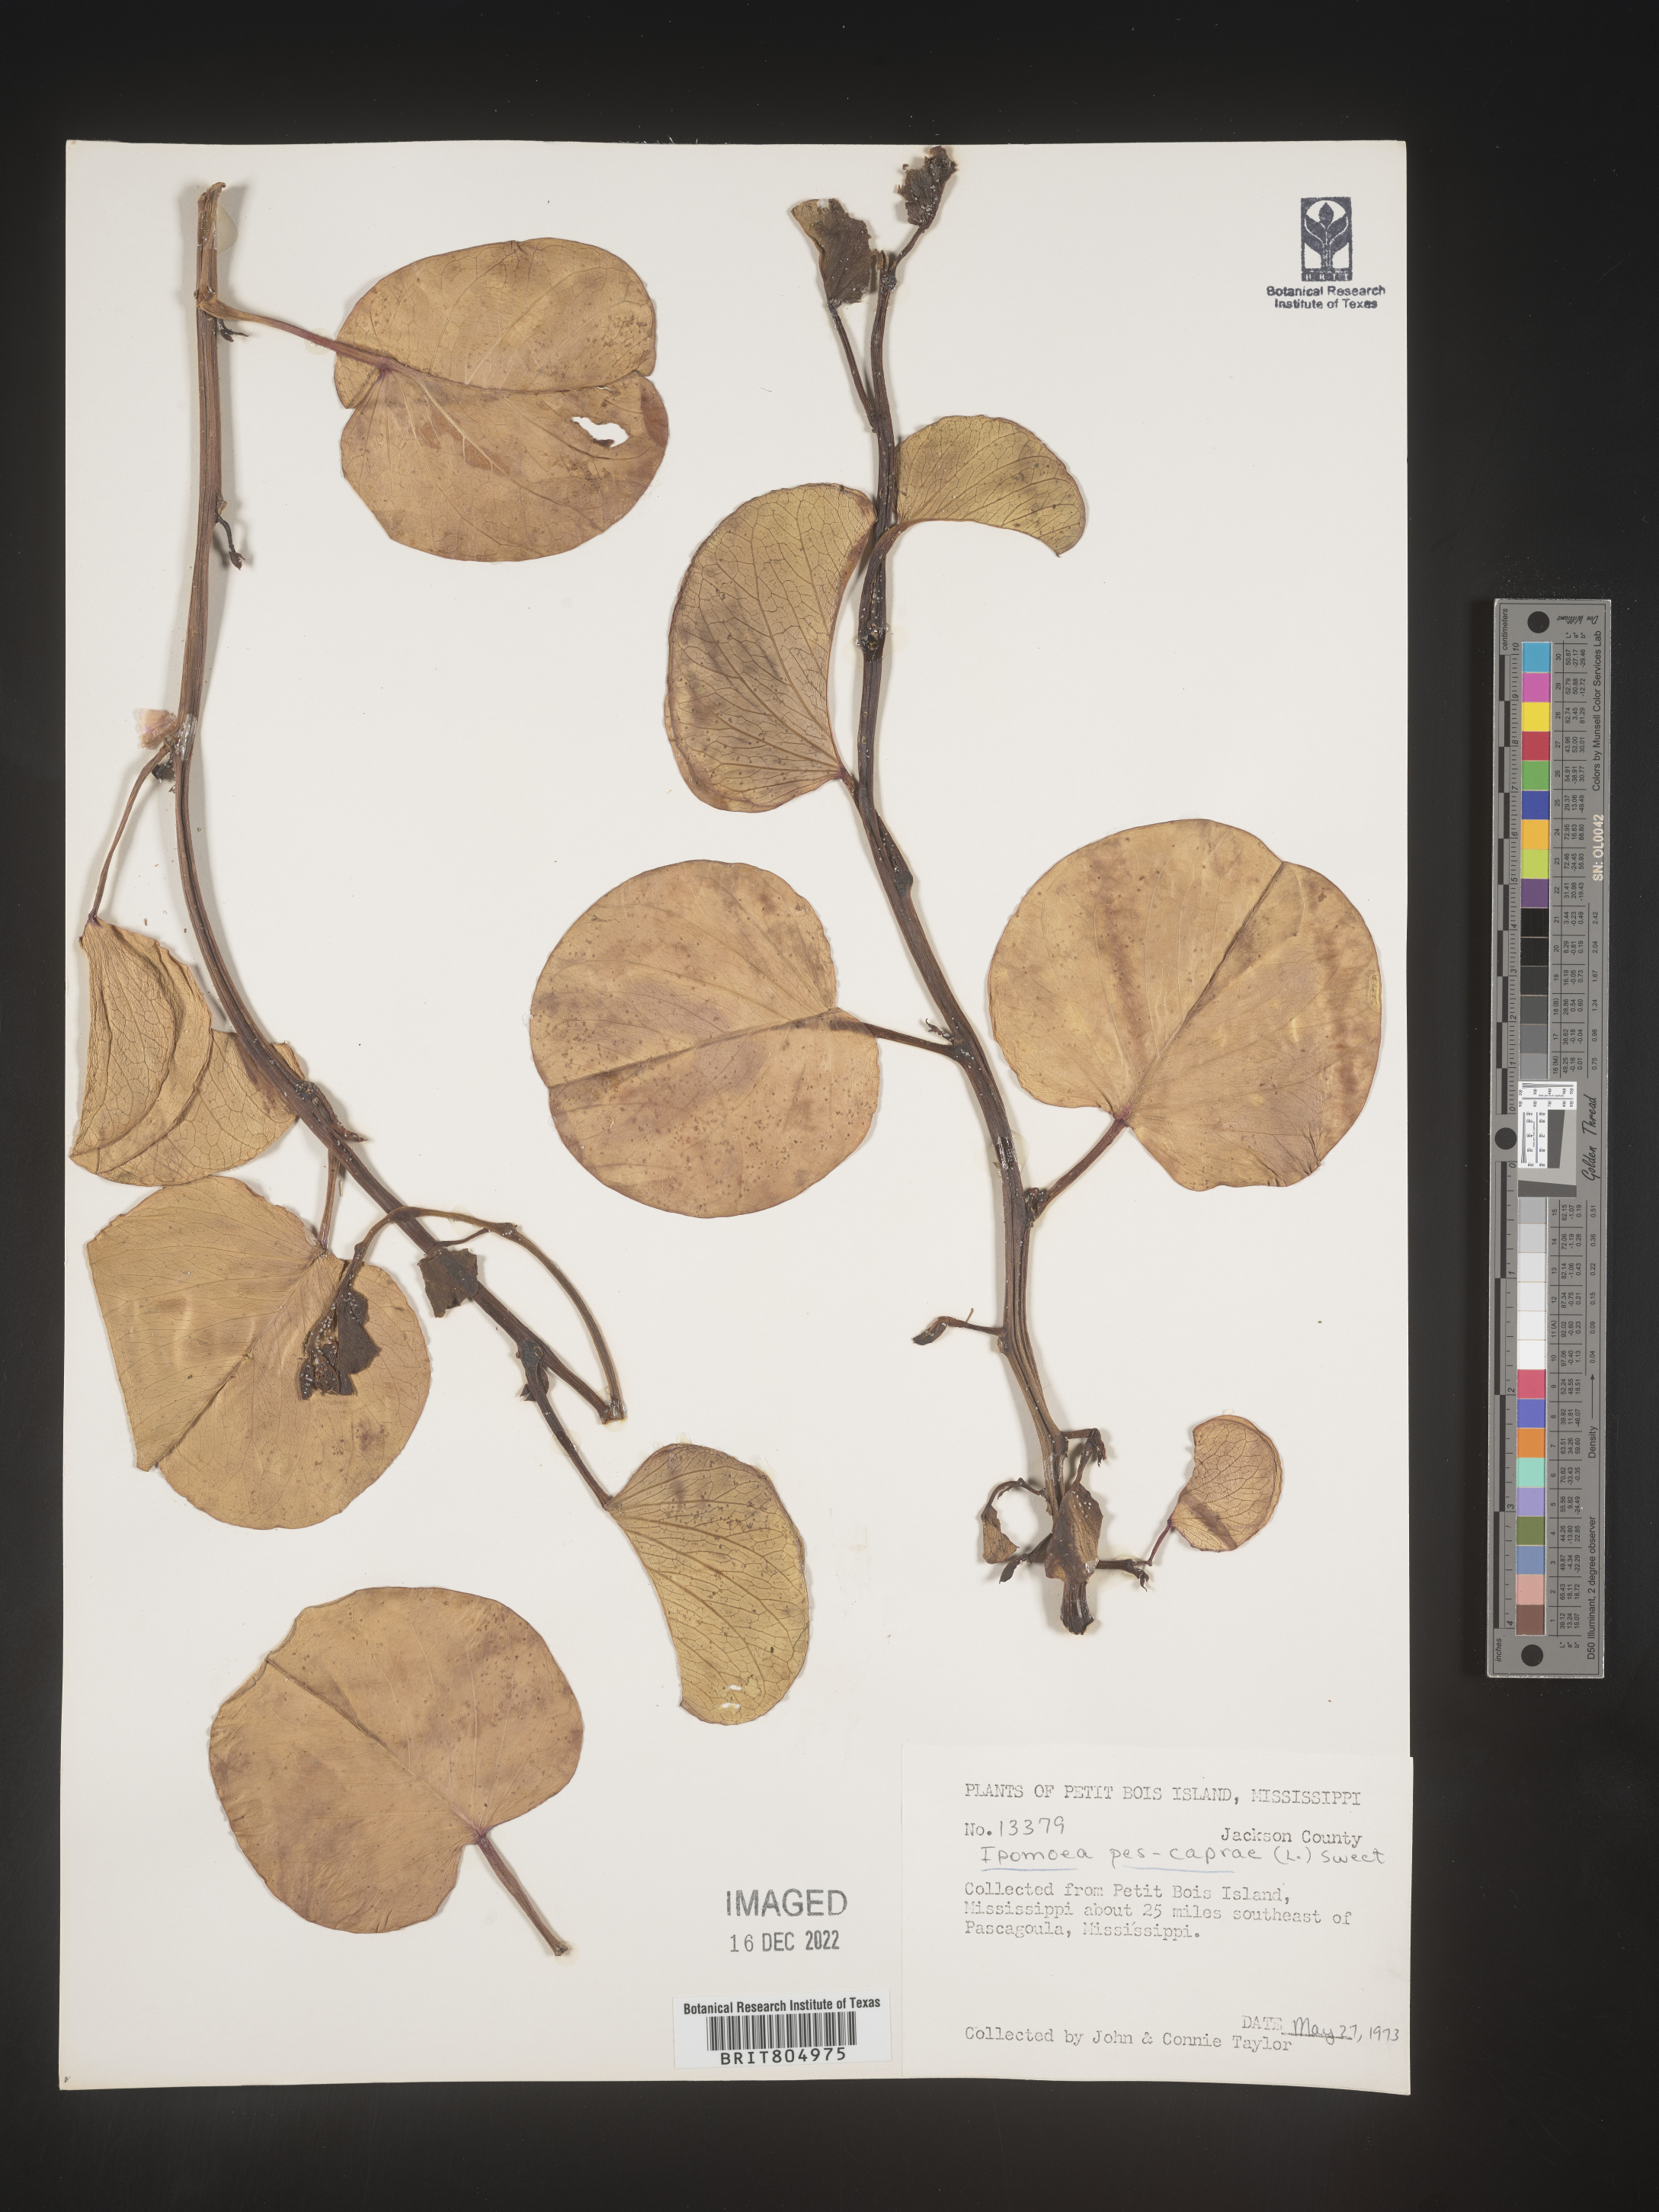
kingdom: Plantae
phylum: Tracheophyta
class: Magnoliopsida
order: Solanales
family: Convolvulaceae
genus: Ipomoea
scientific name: Ipomoea pes-caprae
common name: Beach morning glory
